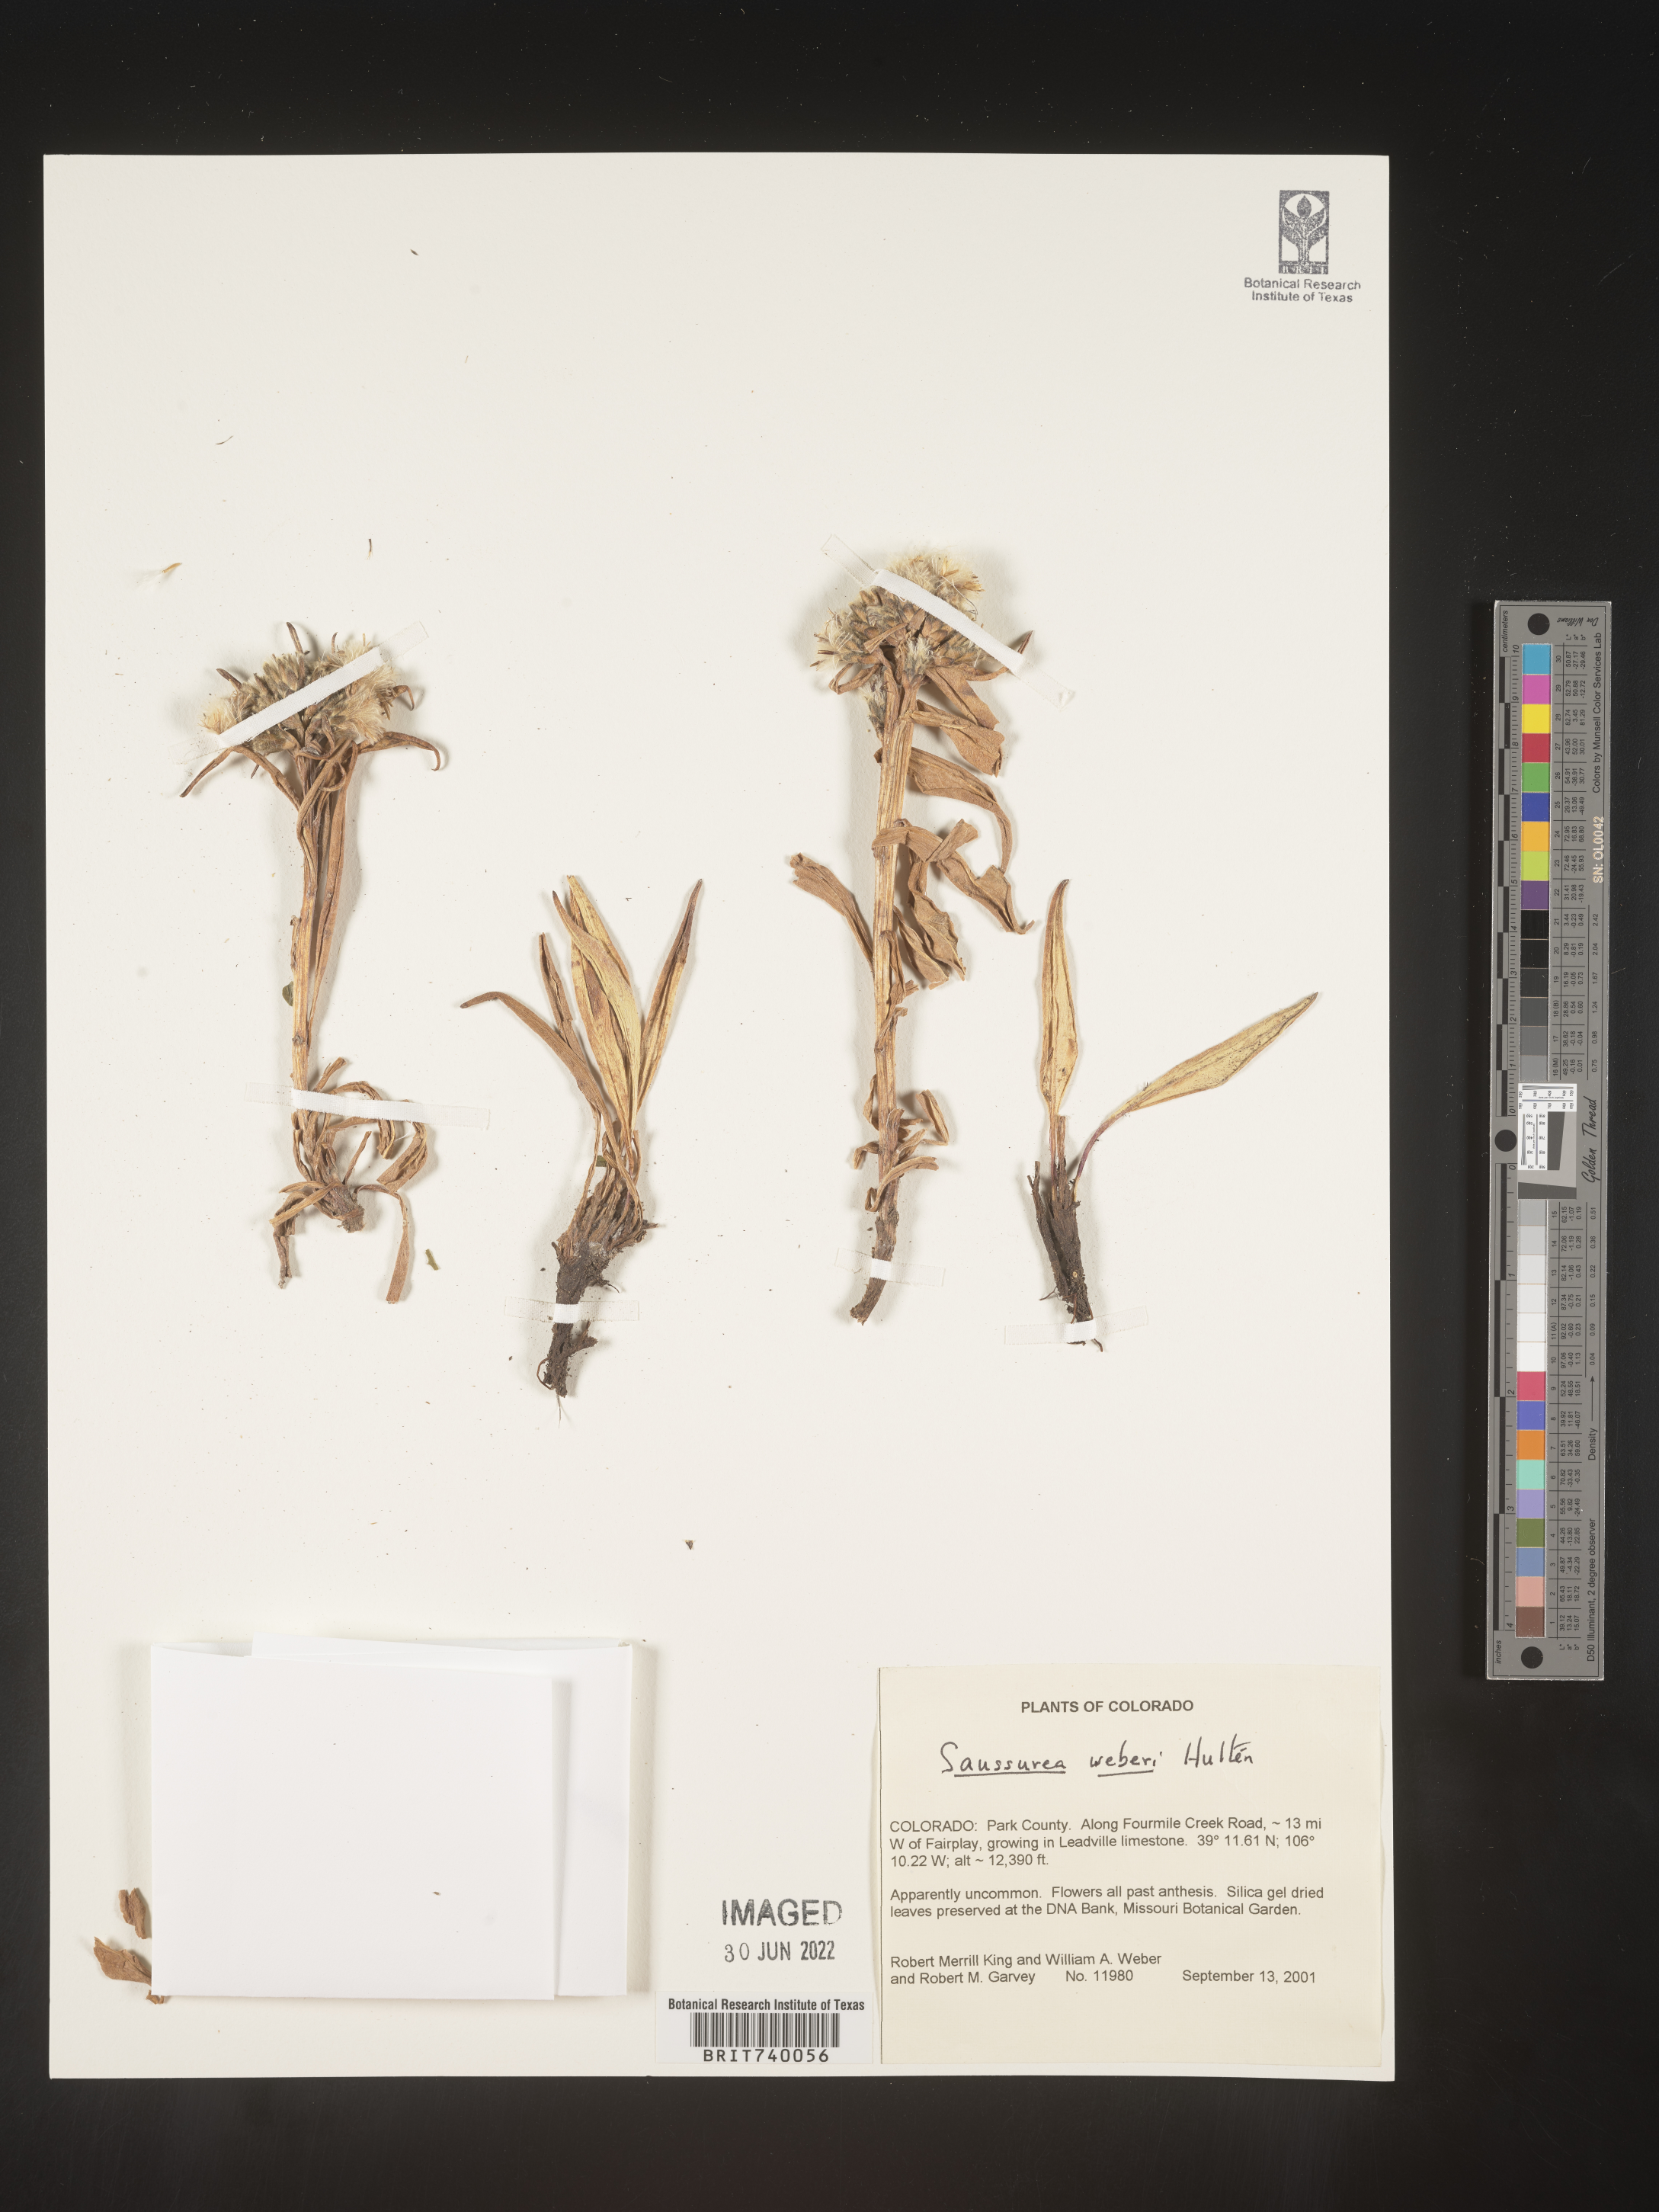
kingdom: Plantae
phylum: Tracheophyta
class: Magnoliopsida
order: Asterales
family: Asteraceae
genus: Saussurea
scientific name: Saussurea
